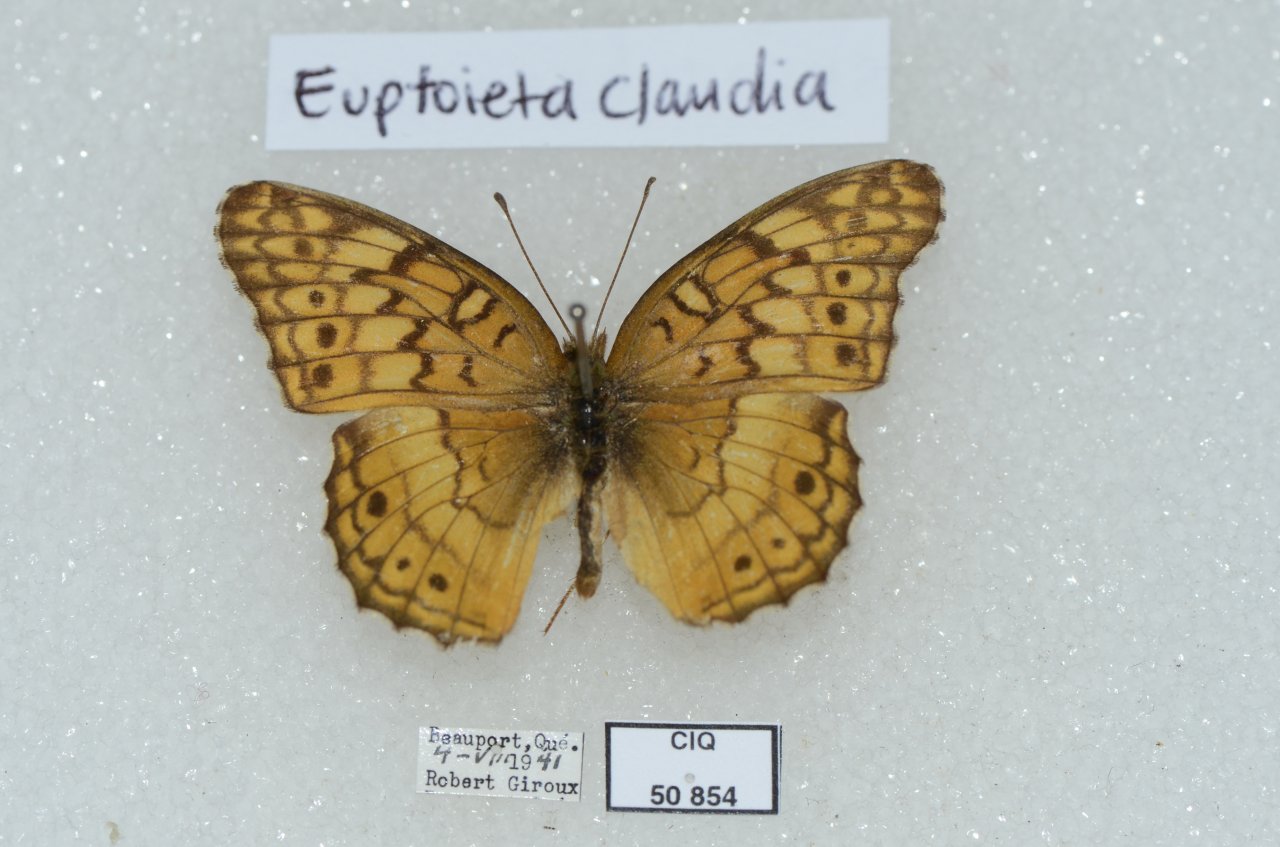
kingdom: Animalia
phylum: Arthropoda
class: Insecta
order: Lepidoptera
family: Nymphalidae
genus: Euptoieta
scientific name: Euptoieta claudia
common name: Variegated Fritillary
